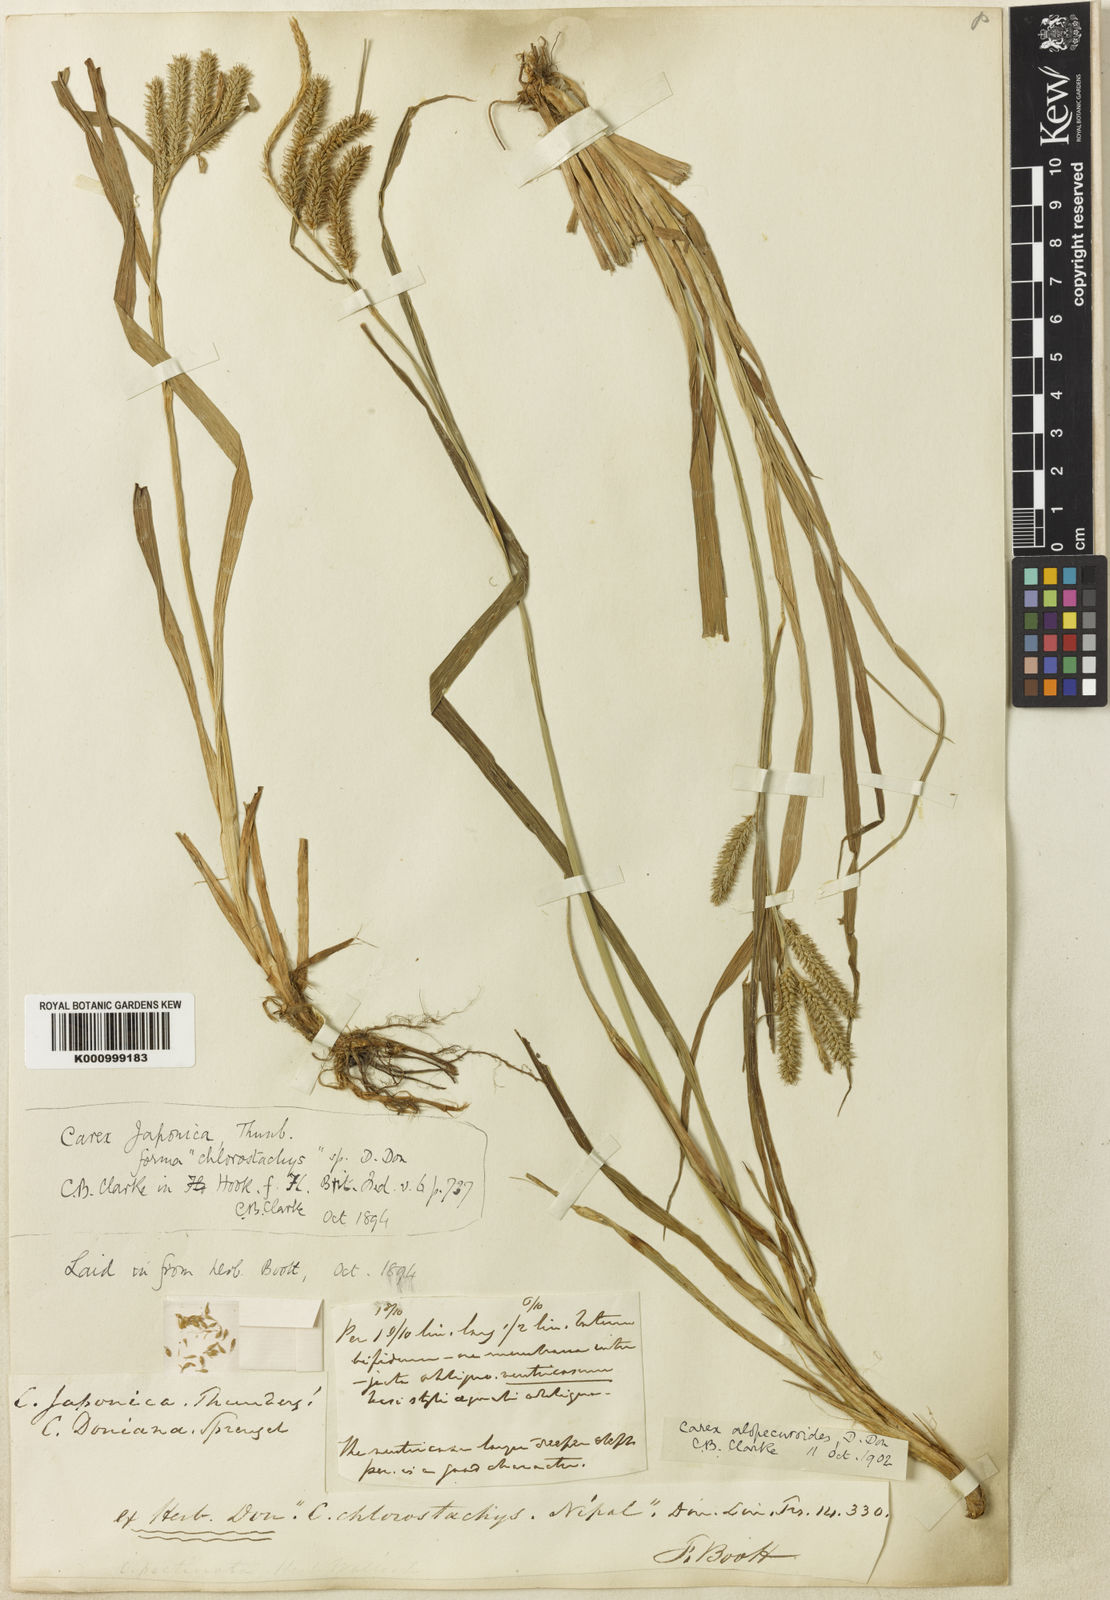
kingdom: Plantae
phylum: Tracheophyta
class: Liliopsida
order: Poales
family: Cyperaceae
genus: Carex
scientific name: Carex
